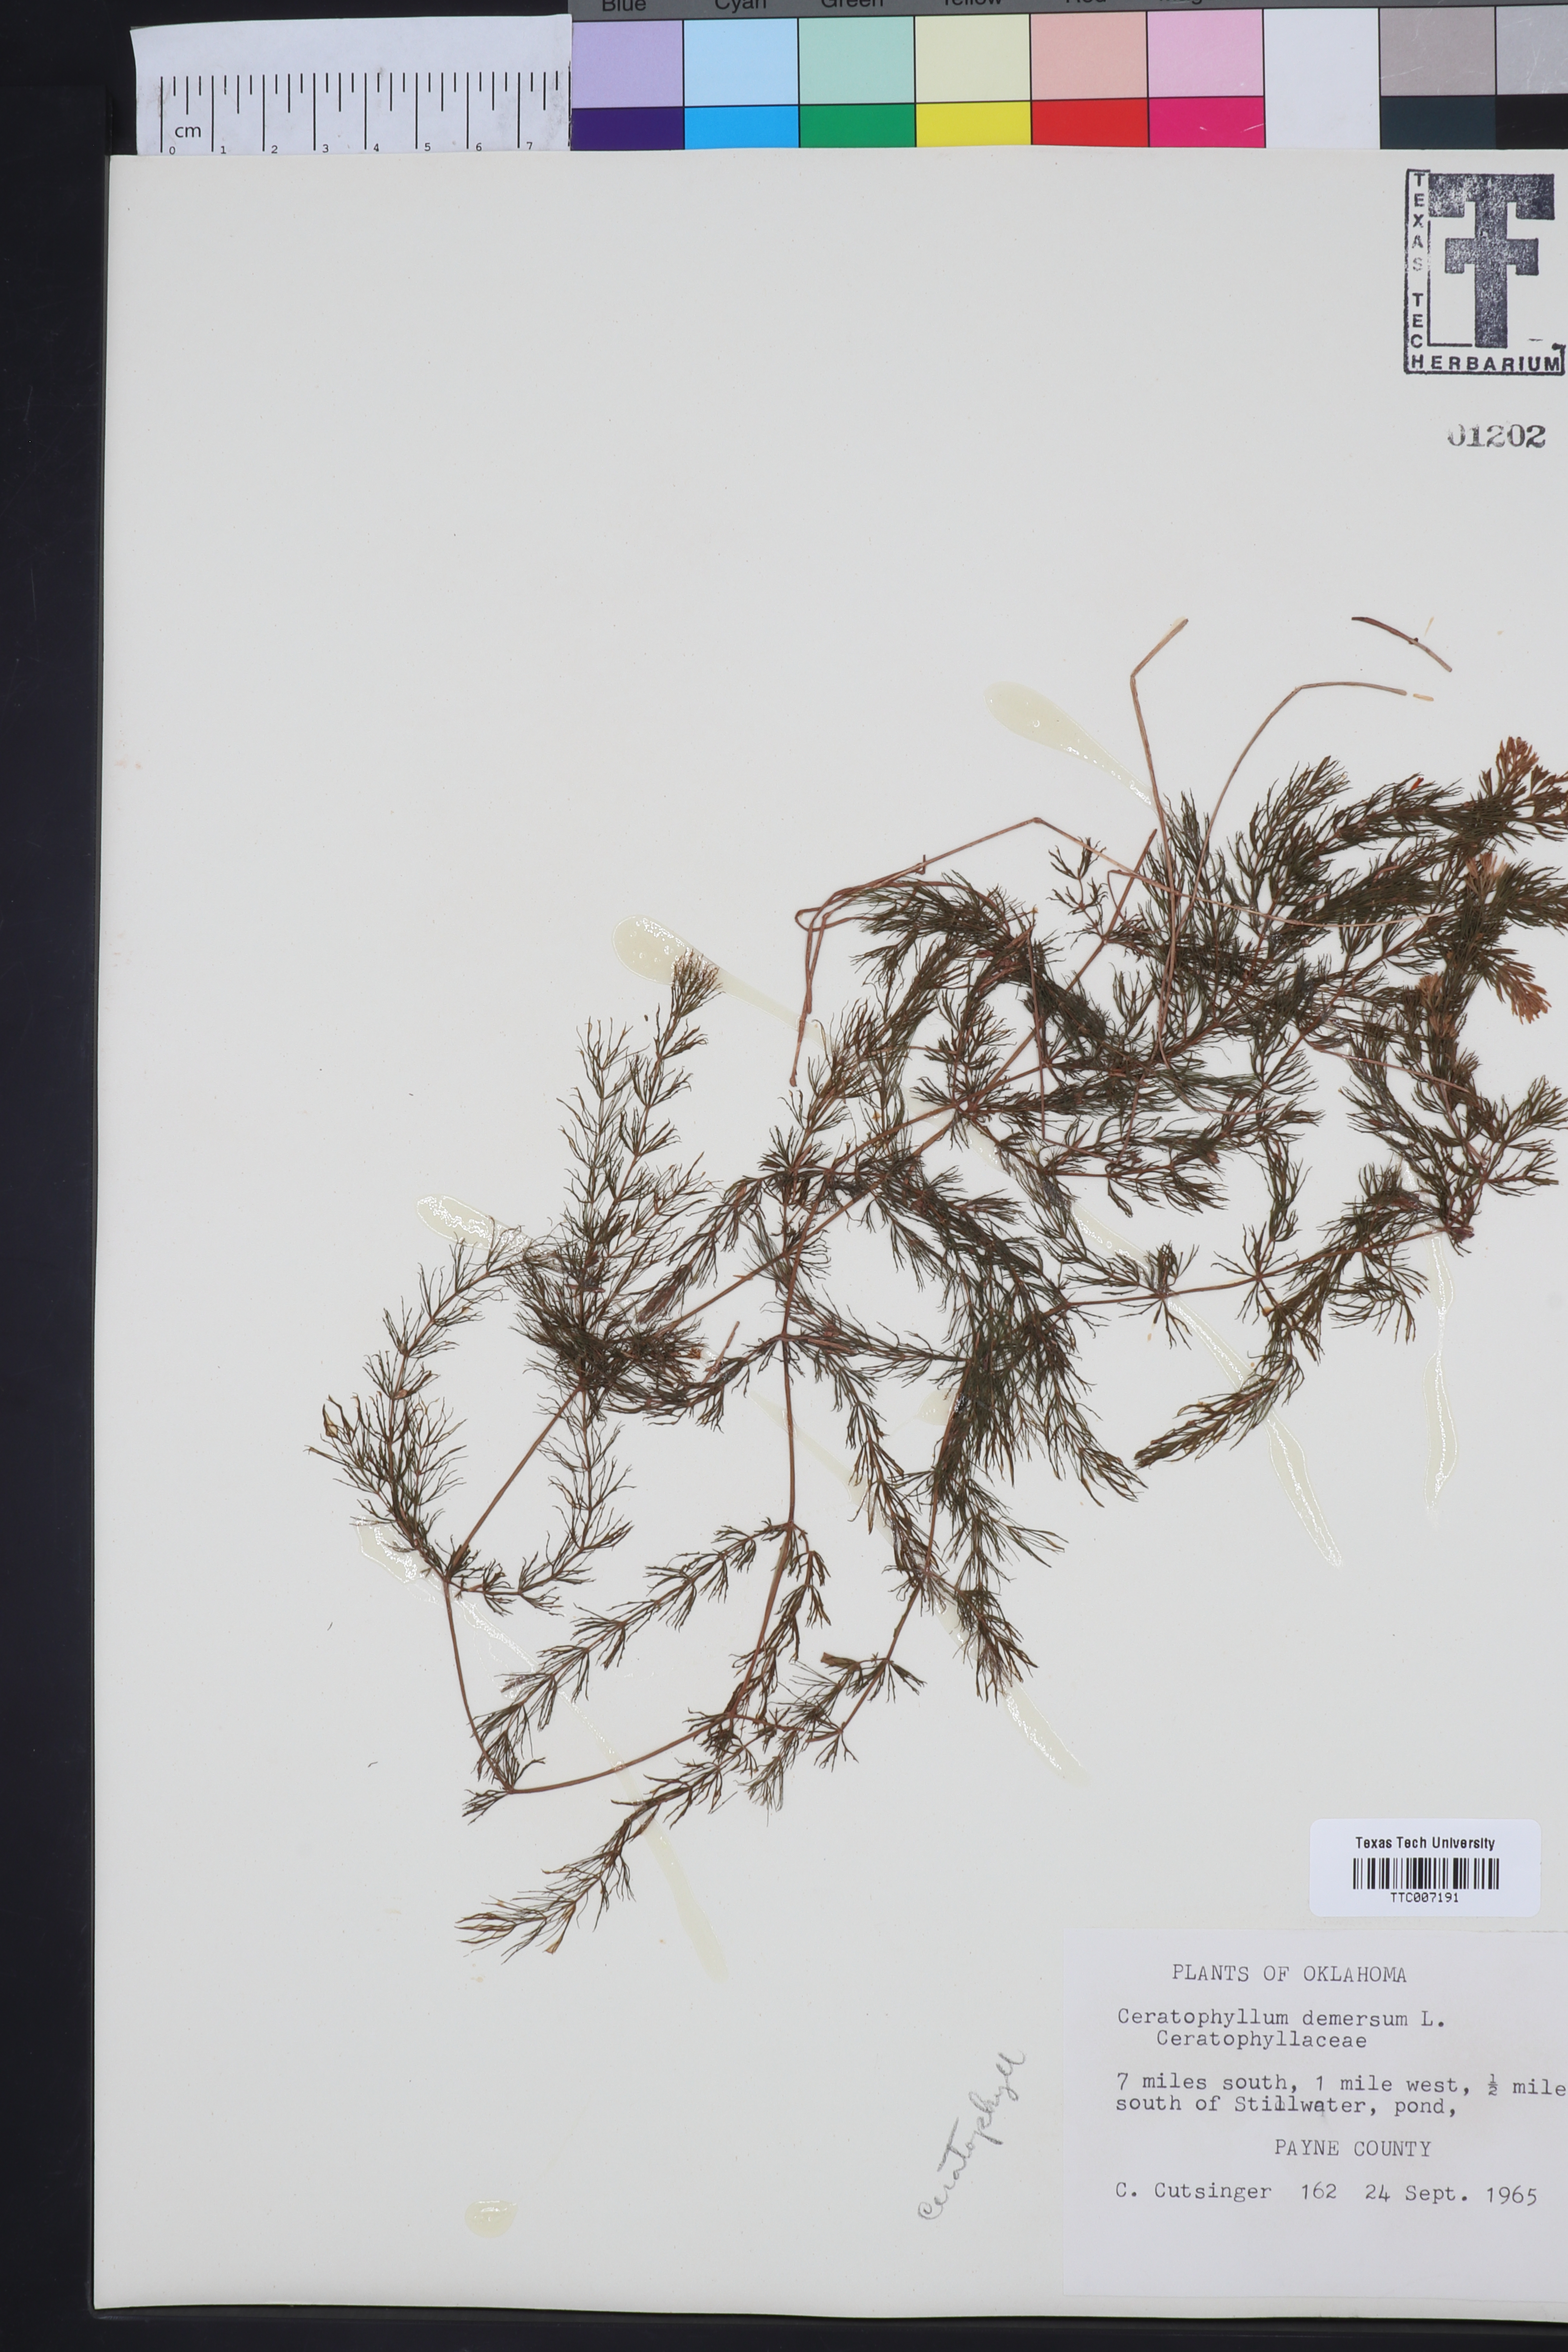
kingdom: Plantae
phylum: Tracheophyta
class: Magnoliopsida
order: Ceratophyllales
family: Ceratophyllaceae
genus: Ceratophyllum
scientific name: Ceratophyllum demersum
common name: Rigid hornwort
